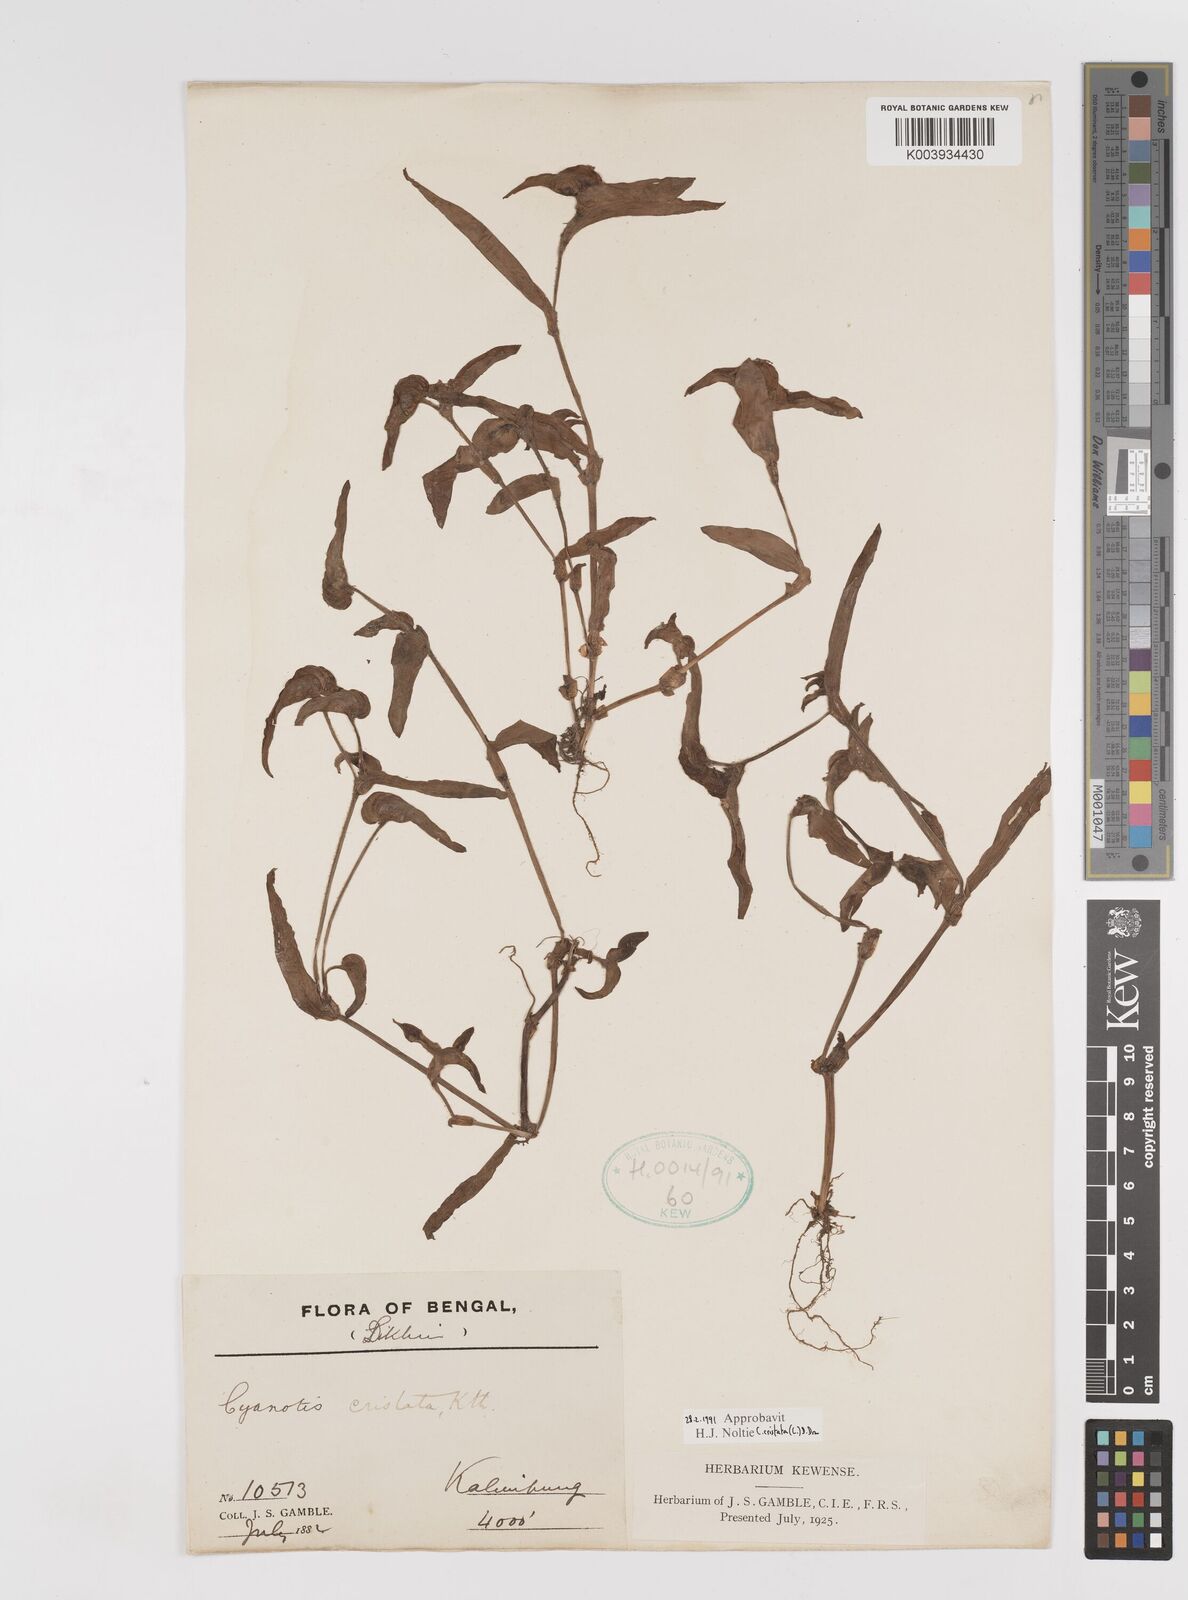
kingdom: Plantae
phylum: Tracheophyta
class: Liliopsida
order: Commelinales
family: Commelinaceae
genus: Cyanotis
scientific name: Cyanotis cristata
